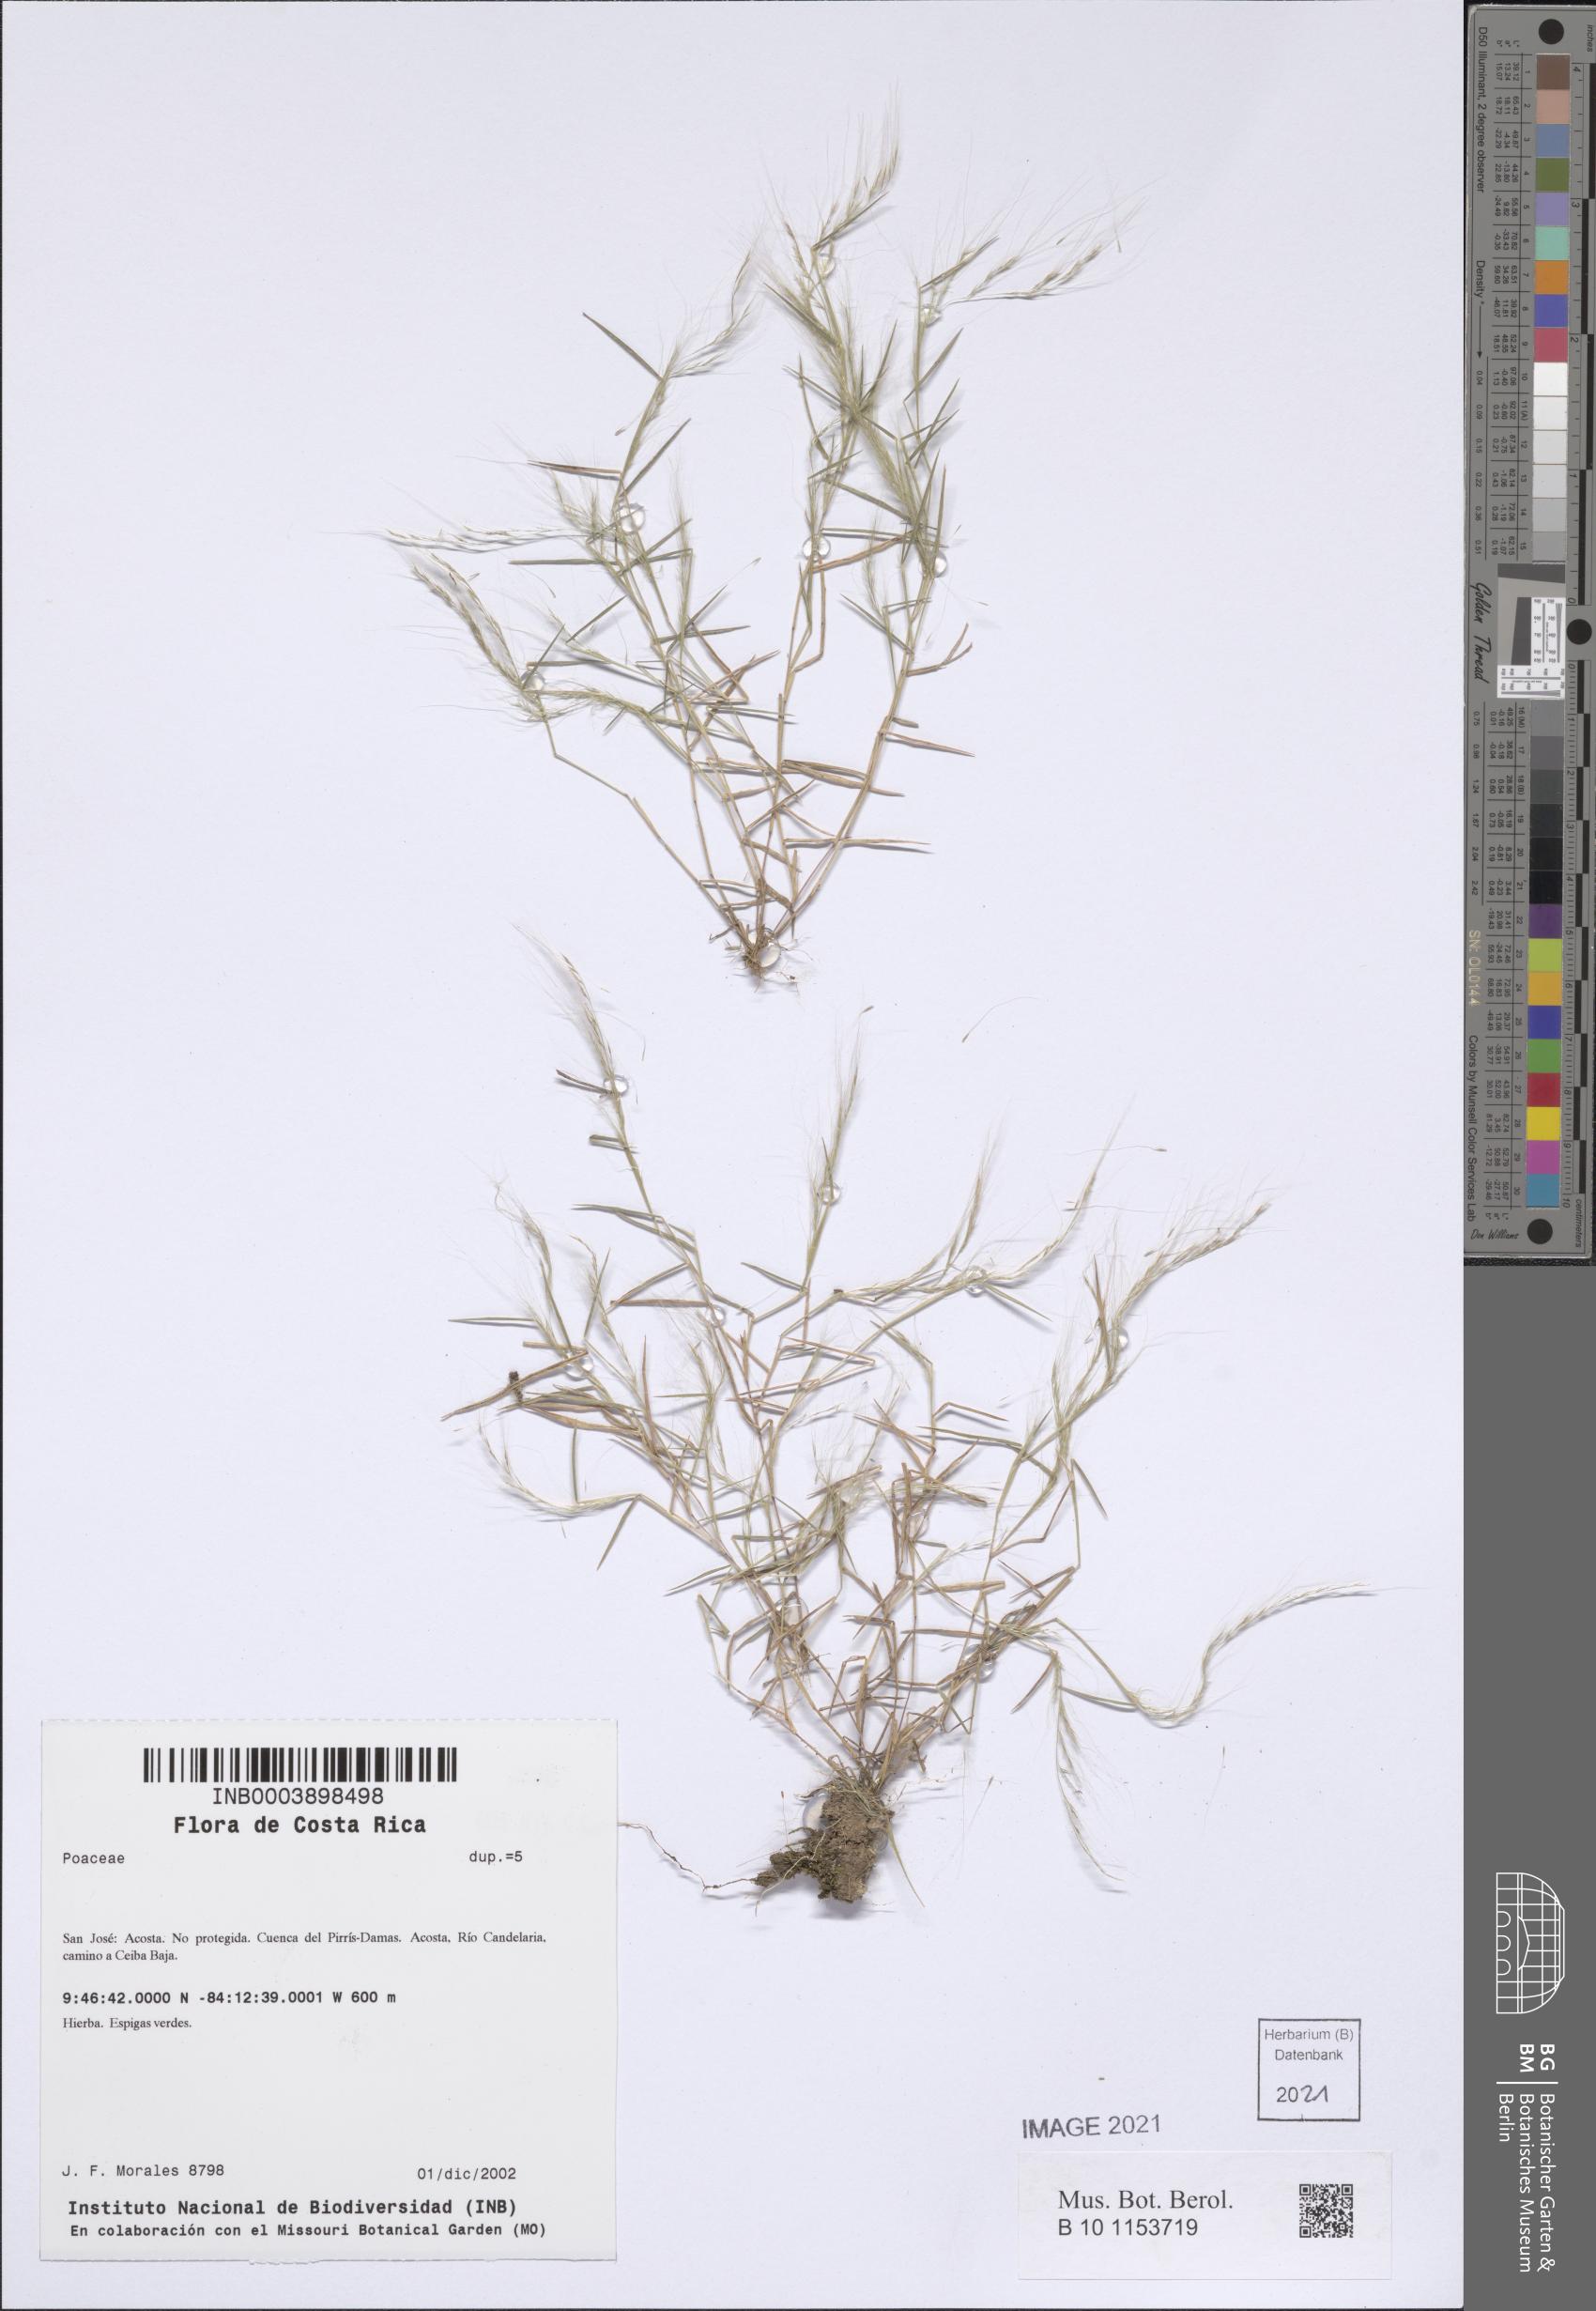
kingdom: Plantae
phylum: Tracheophyta
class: Liliopsida
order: Poales
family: Poaceae
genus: Muhlenbergia
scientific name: Muhlenbergia tenella
